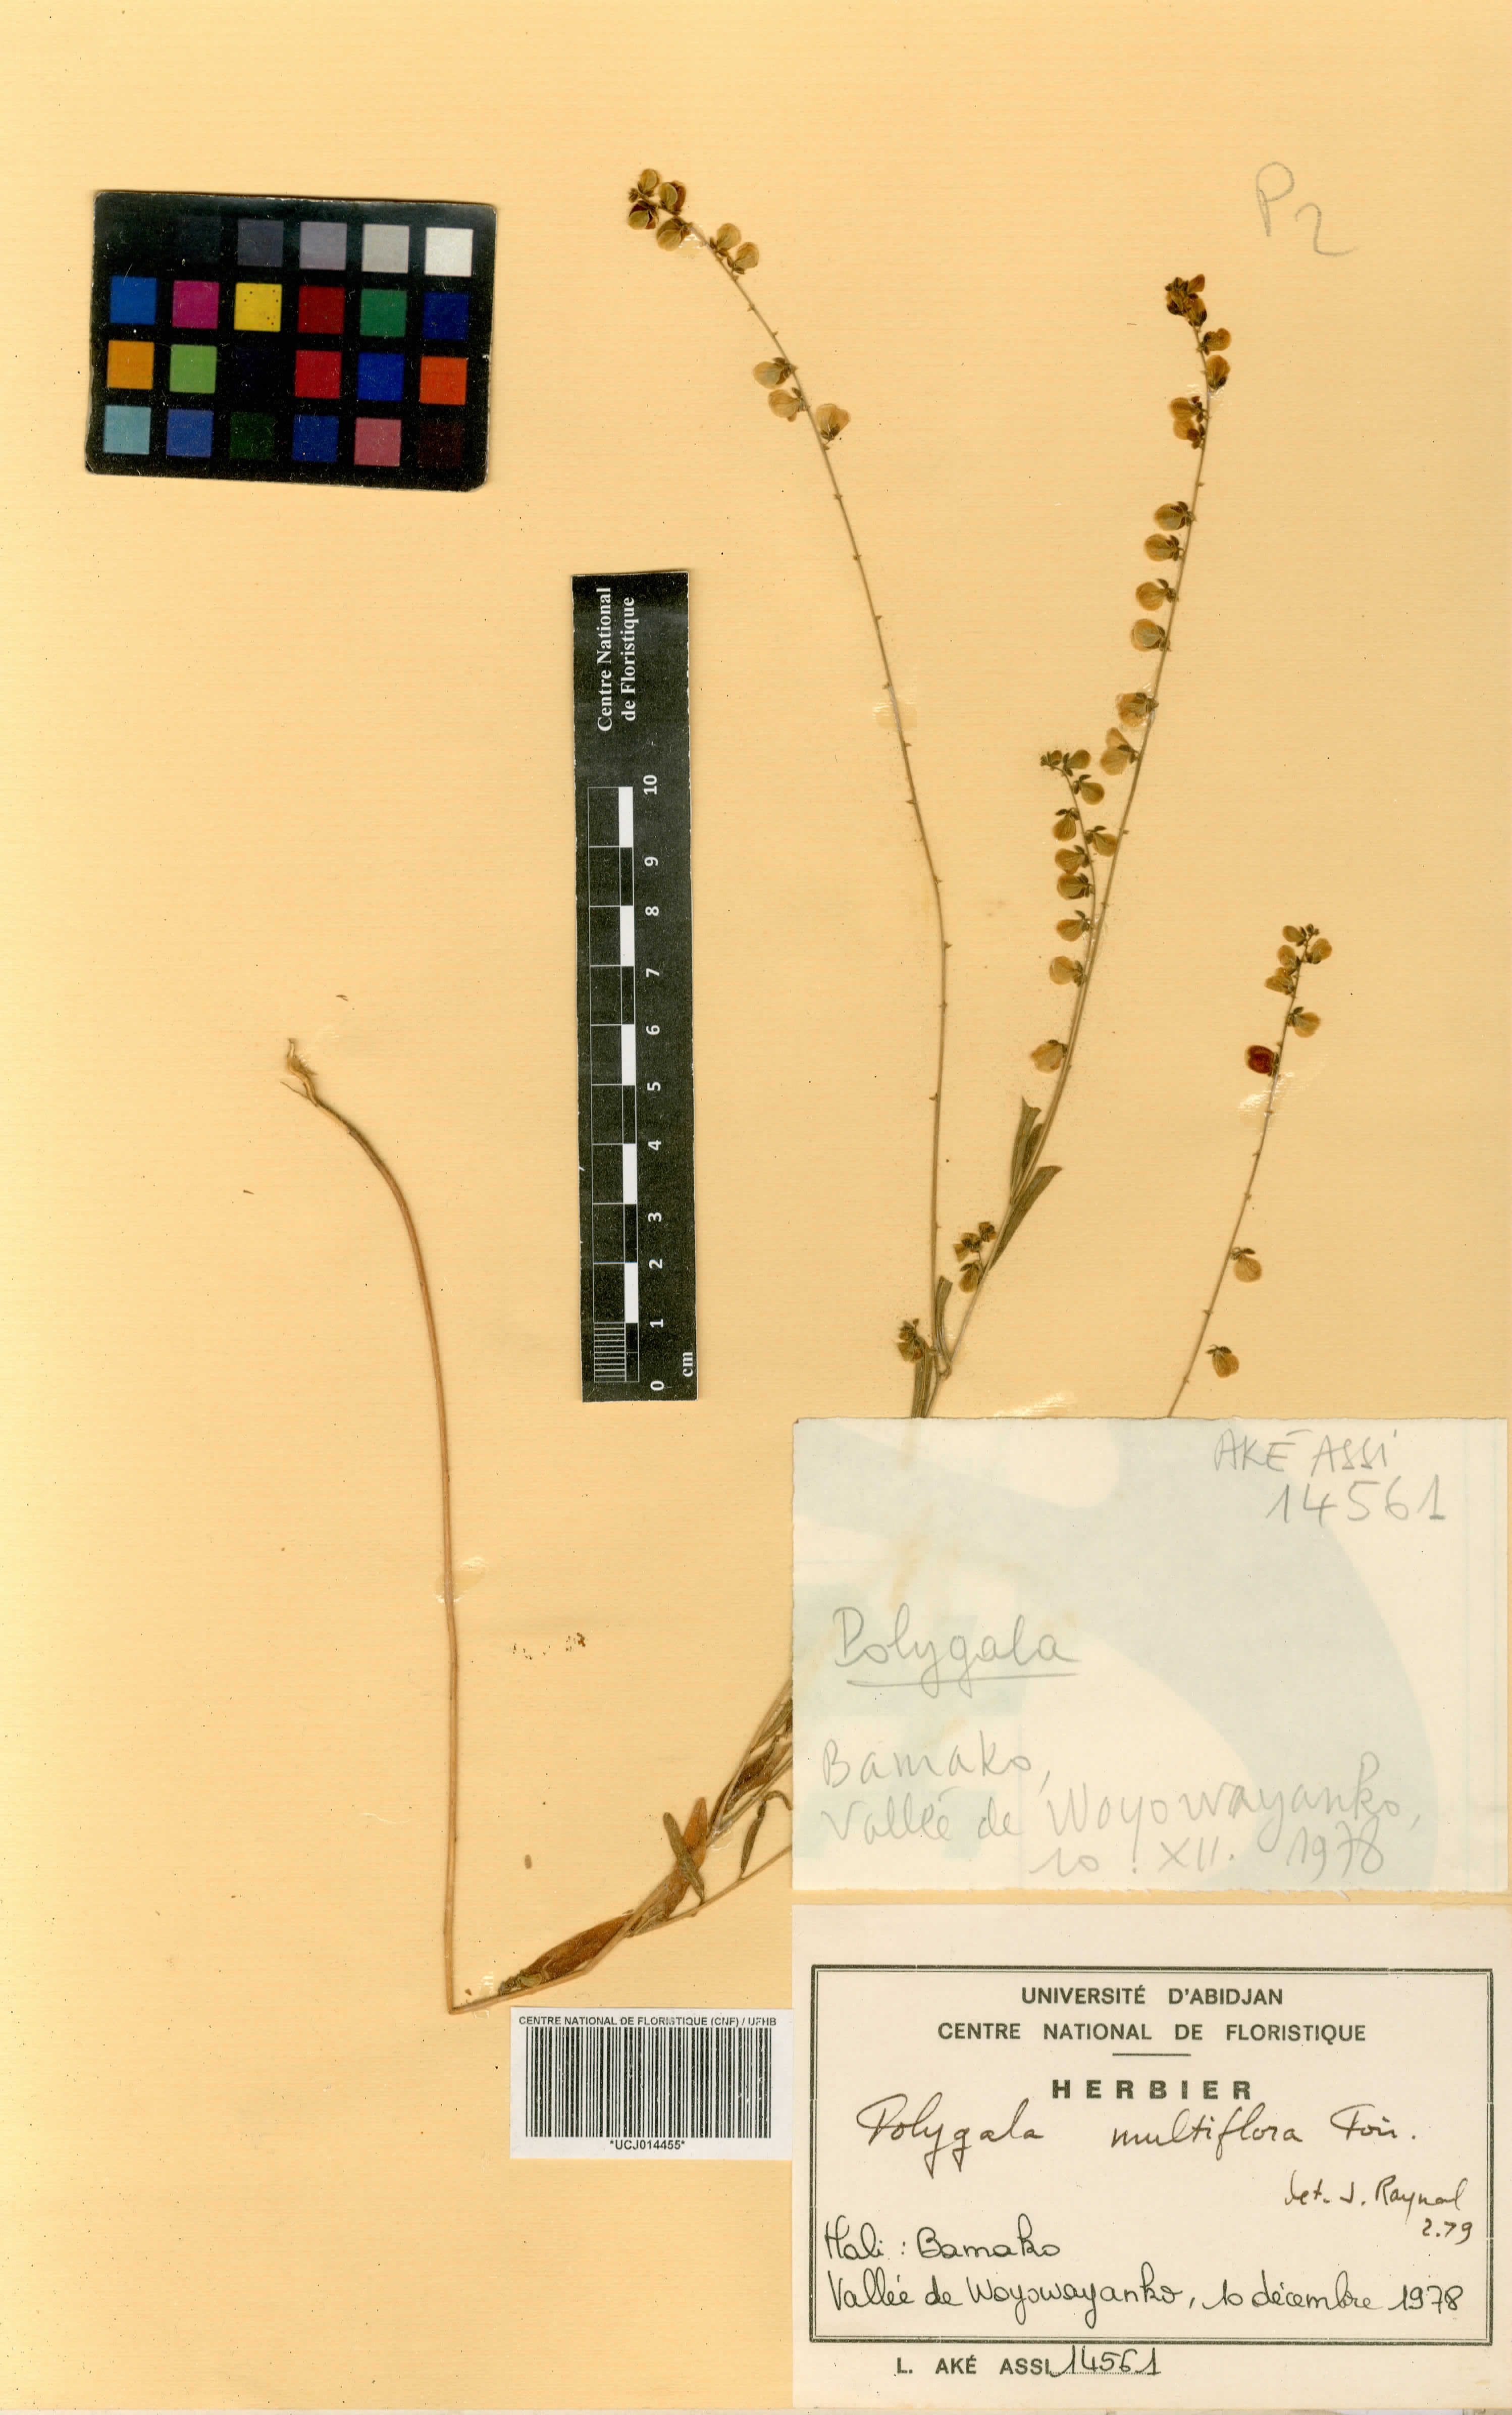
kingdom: Plantae
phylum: Tracheophyta
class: Magnoliopsida
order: Fabales
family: Polygalaceae
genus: Polygala
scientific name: Polygala multiflora
